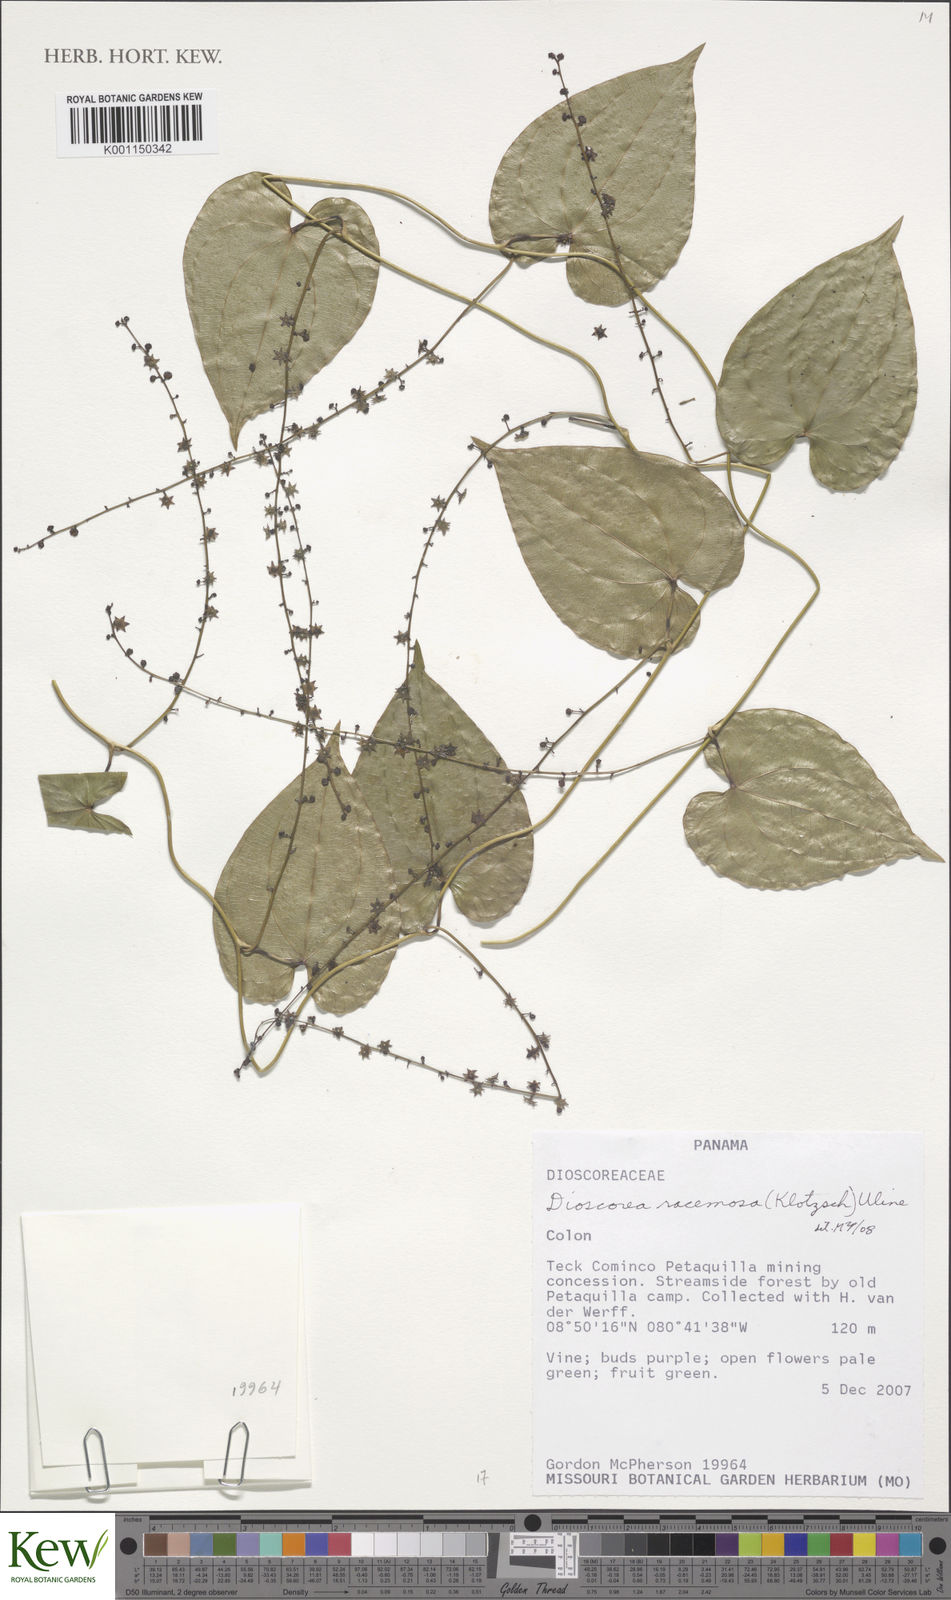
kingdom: Plantae
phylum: Tracheophyta
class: Liliopsida
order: Dioscoreales
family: Dioscoreaceae
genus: Dioscorea
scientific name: Dioscorea
